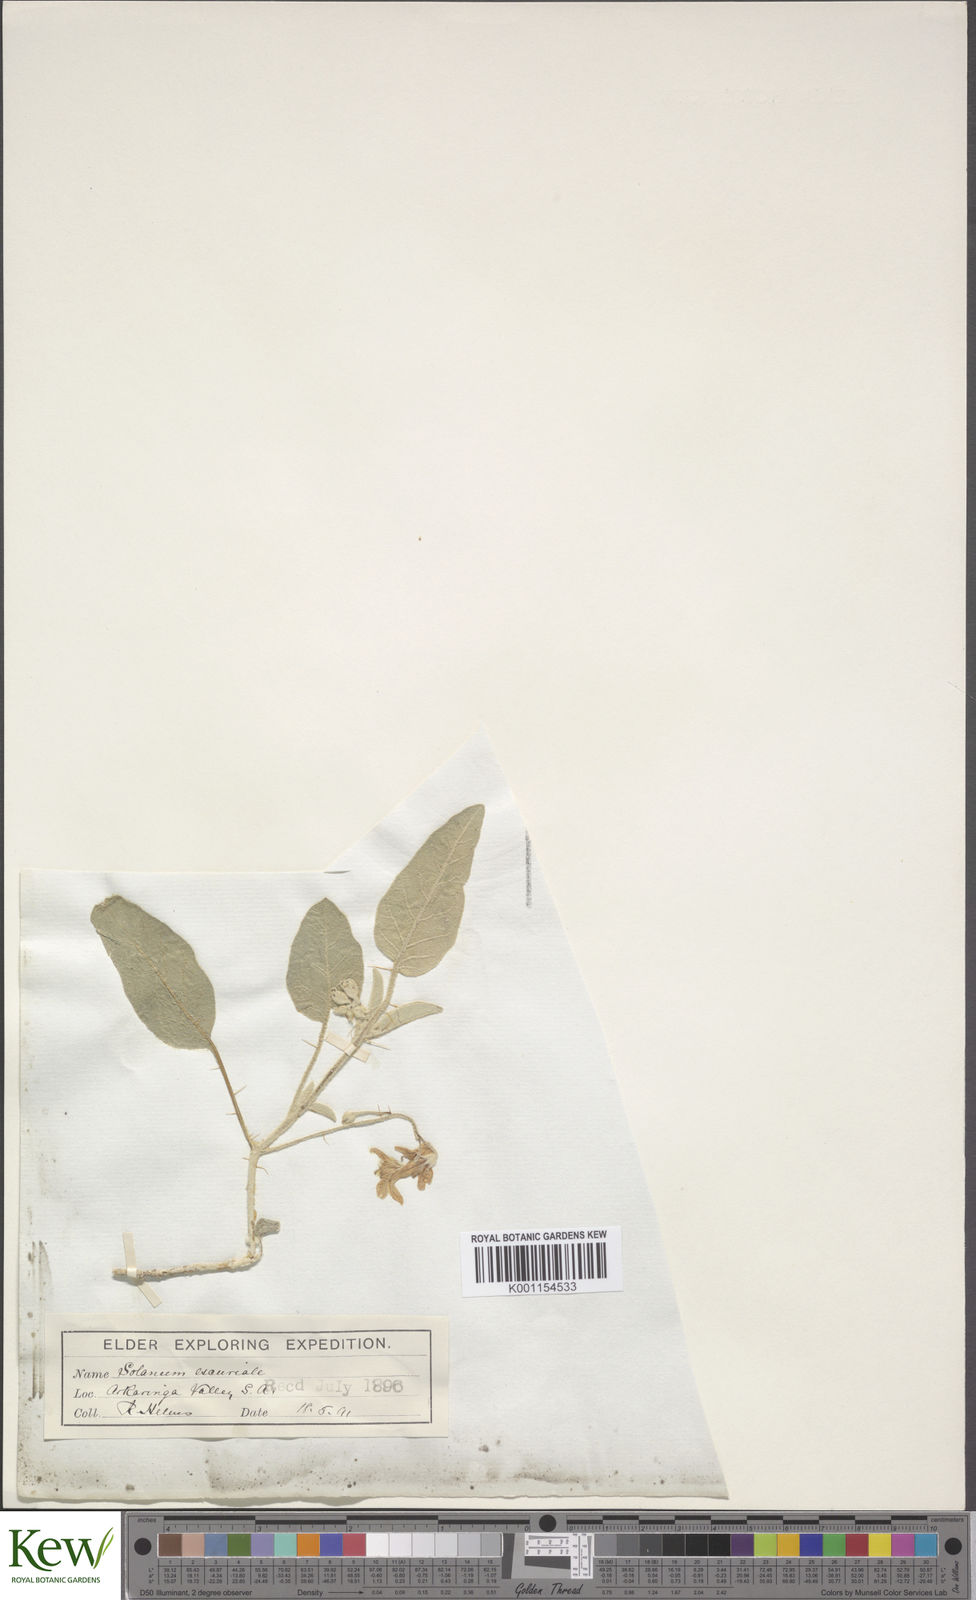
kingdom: Plantae
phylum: Tracheophyta
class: Magnoliopsida
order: Solanales
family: Solanaceae
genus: Solanum
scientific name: Solanum esuriale
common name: Wild tomato
